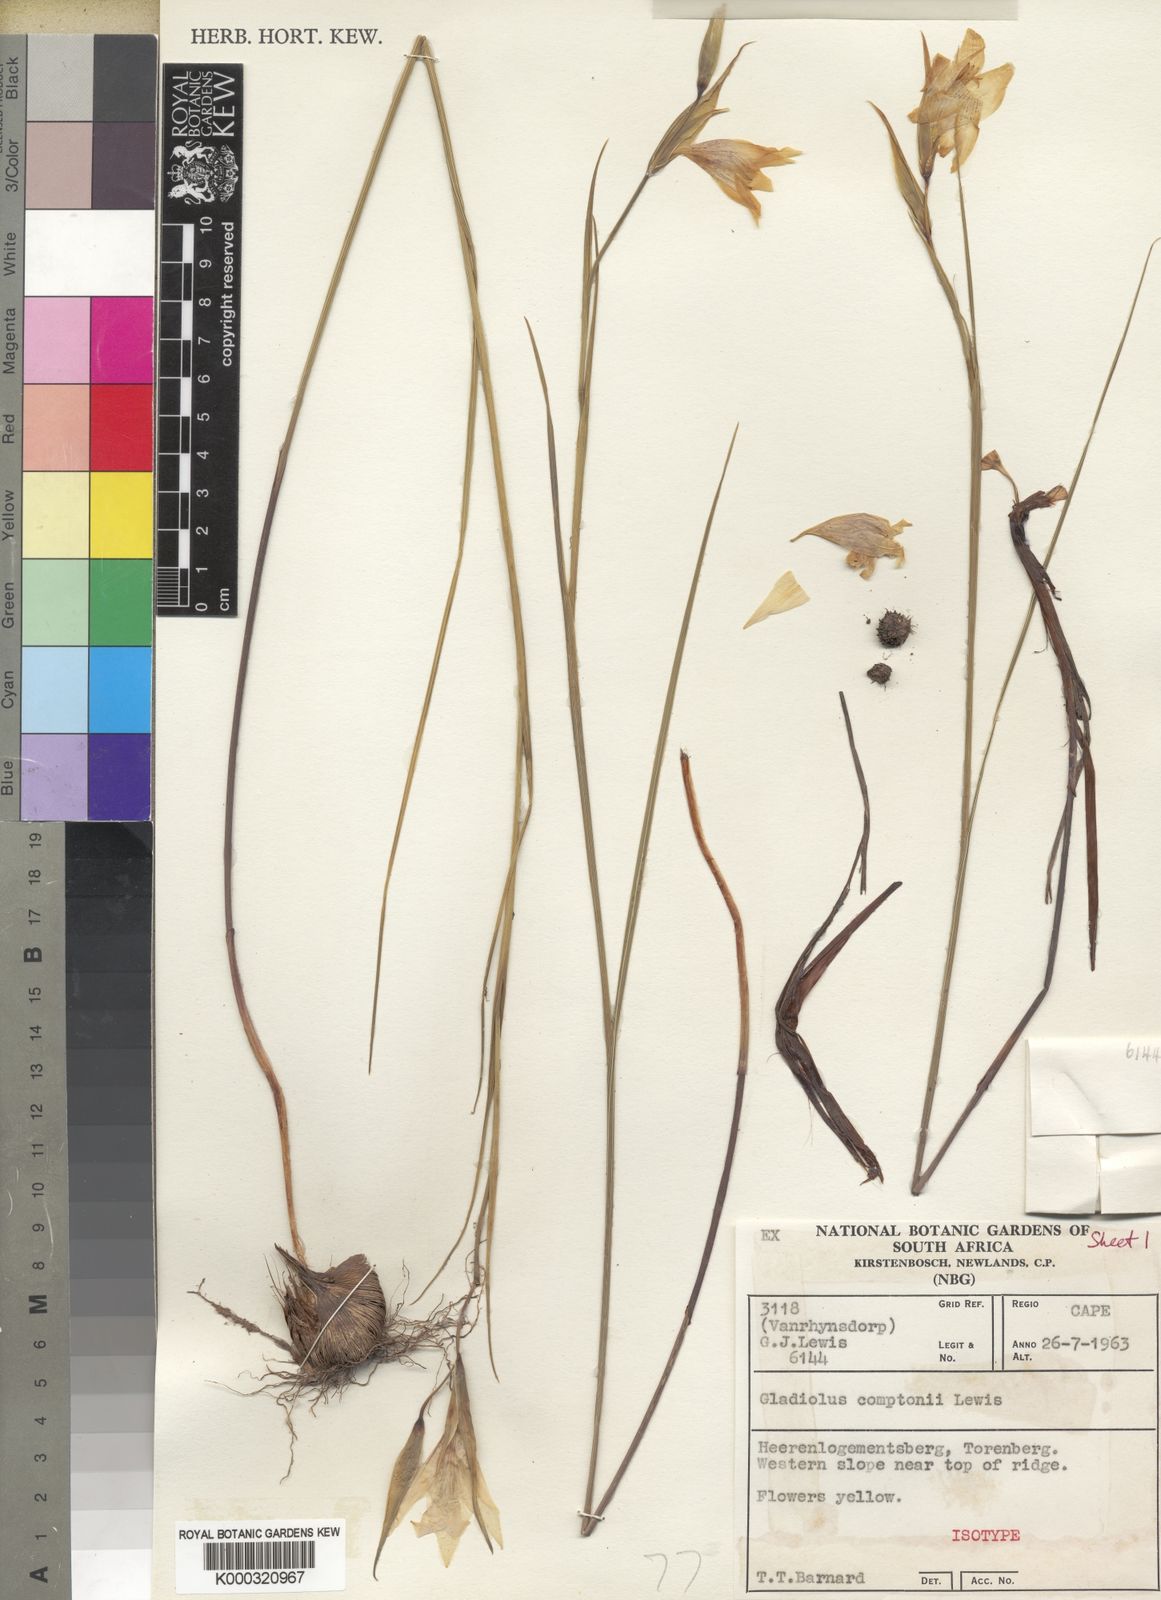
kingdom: Plantae
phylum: Tracheophyta
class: Liliopsida
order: Asparagales
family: Iridaceae
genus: Gladiolus
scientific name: Gladiolus comptonii
